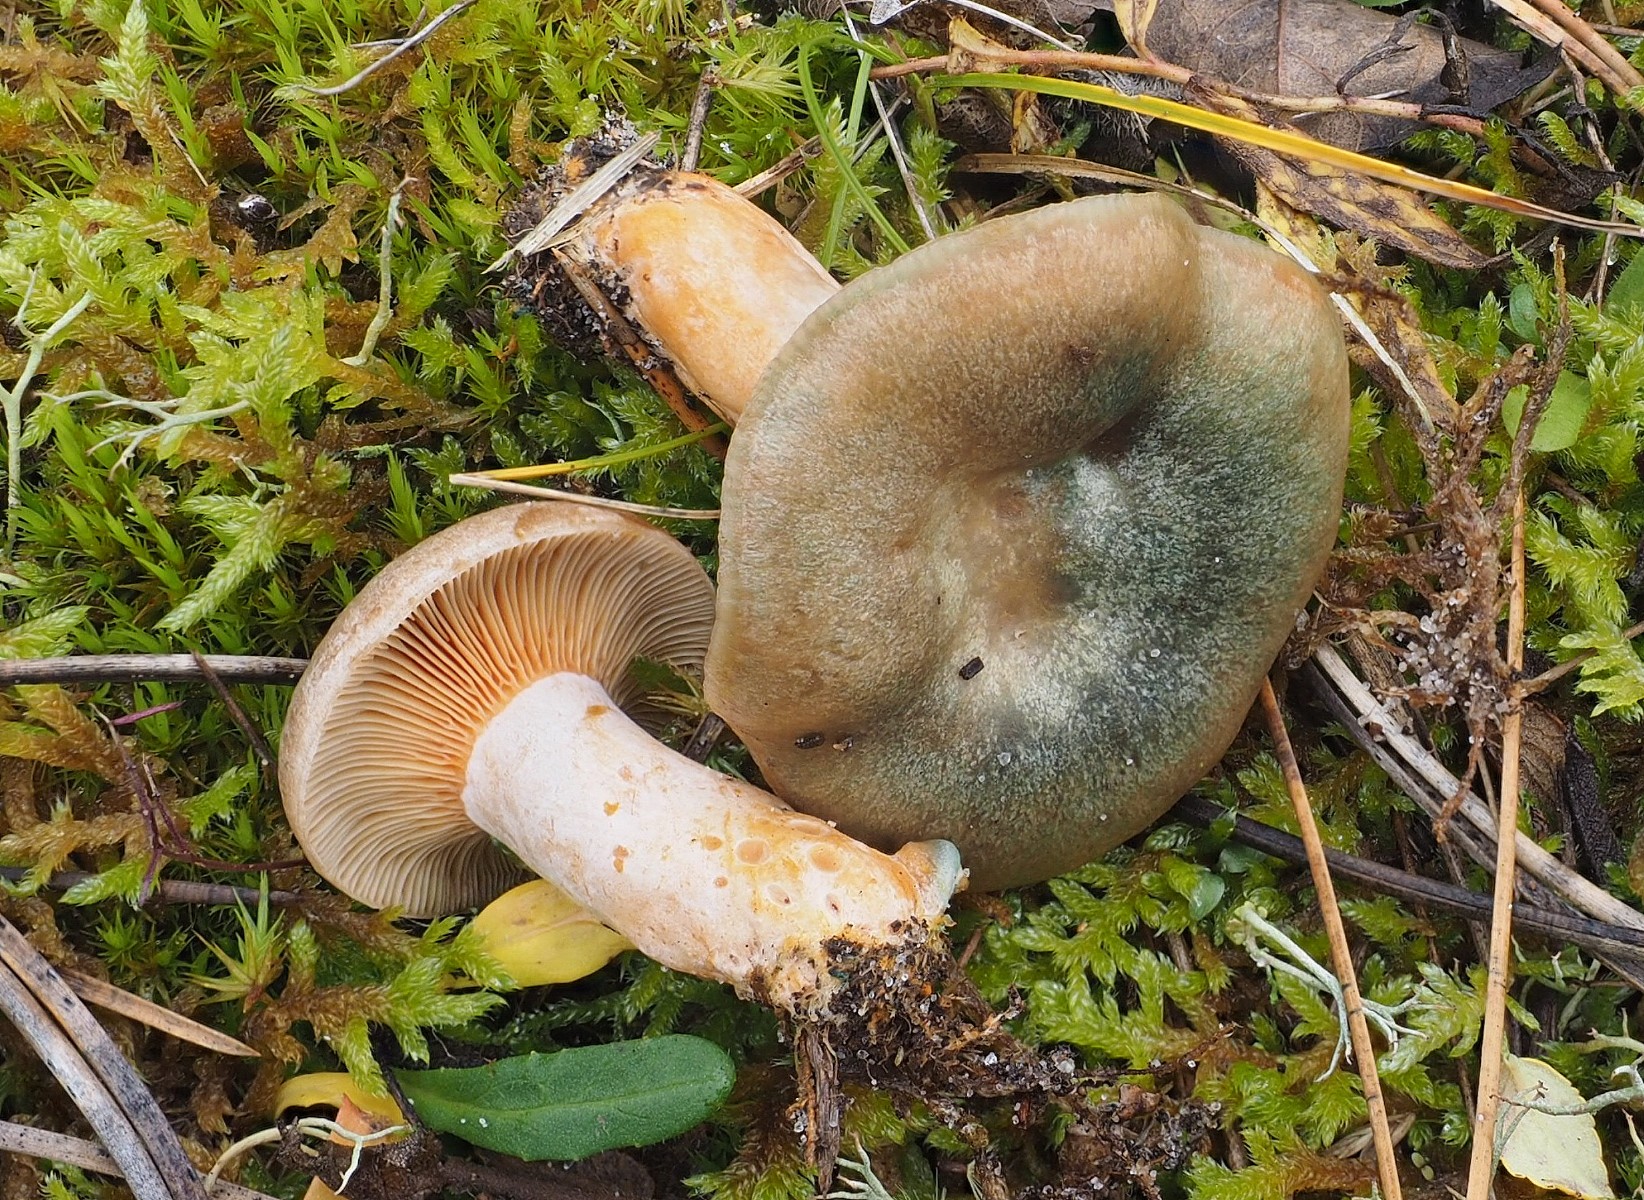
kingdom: Fungi
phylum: Basidiomycota
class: Agaricomycetes
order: Russulales
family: Russulaceae
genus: Lactarius
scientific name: Lactarius quieticolor
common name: tvefarvet mælkehat
